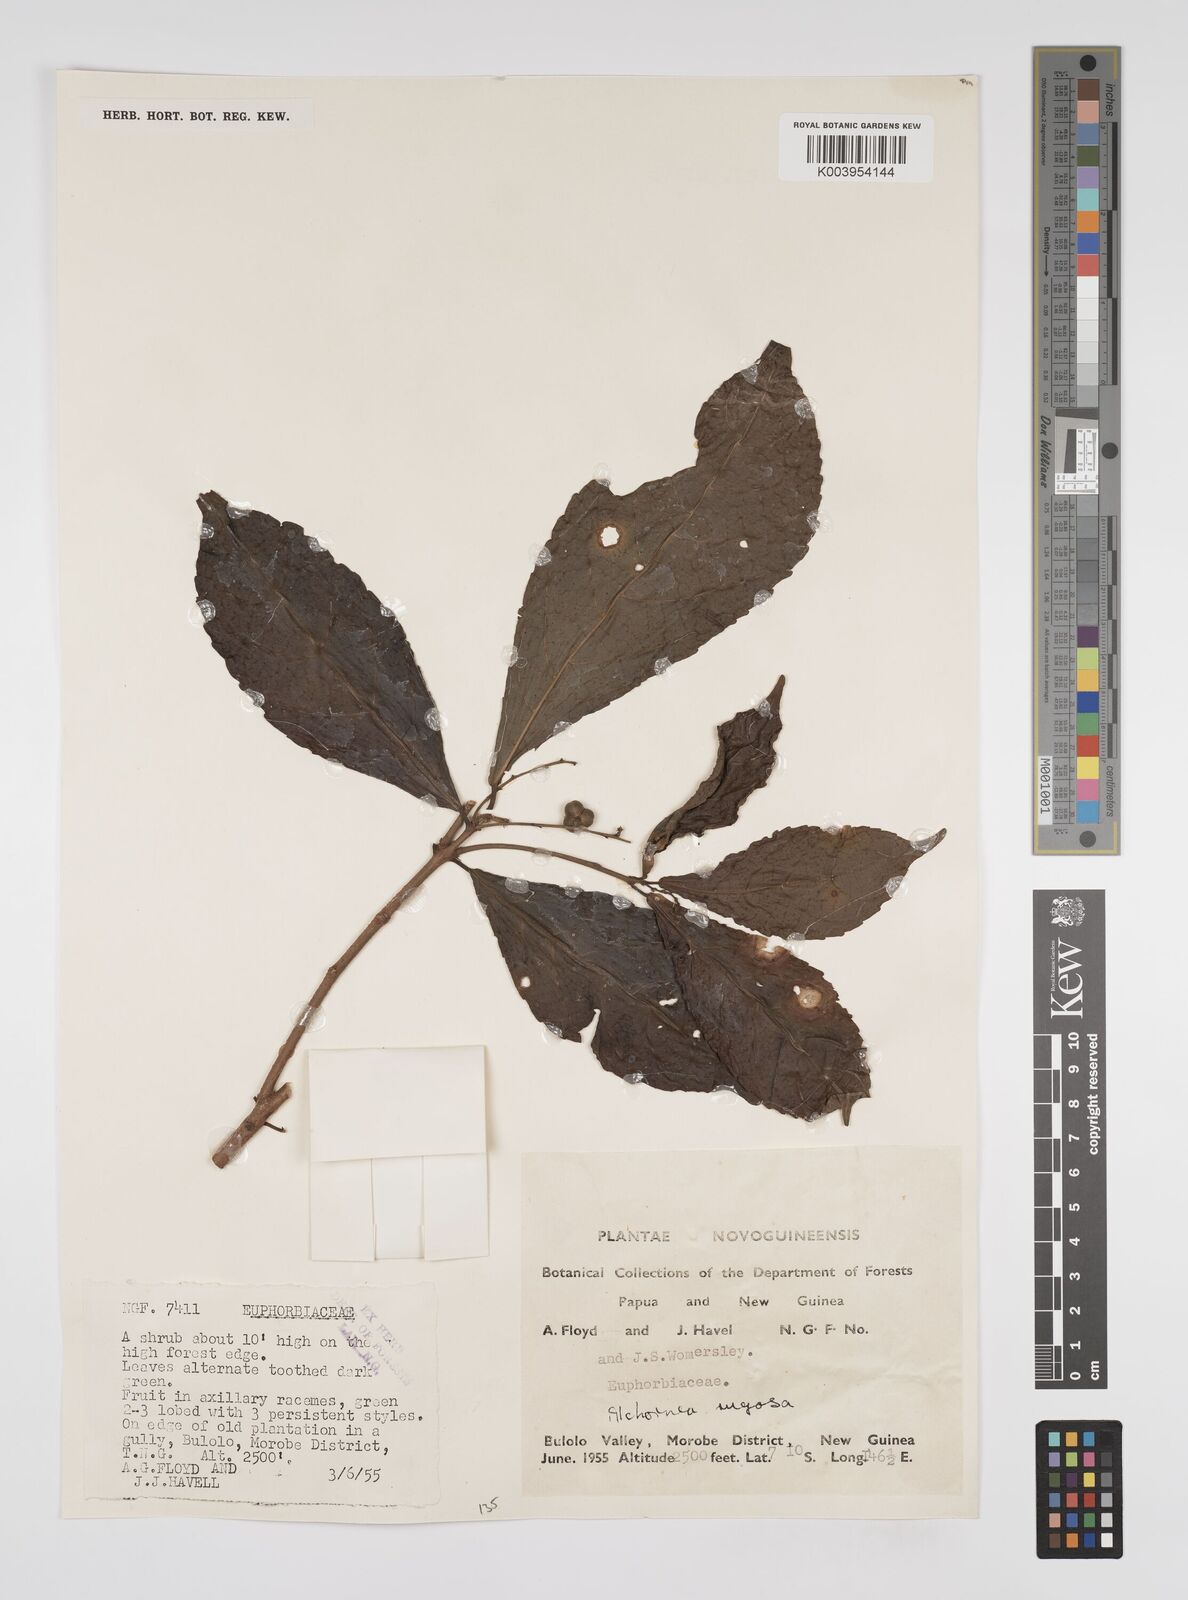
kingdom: Plantae
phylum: Tracheophyta
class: Magnoliopsida
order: Malpighiales
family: Euphorbiaceae
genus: Alchornea
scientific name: Alchornea rugosa
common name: Alchorntree
